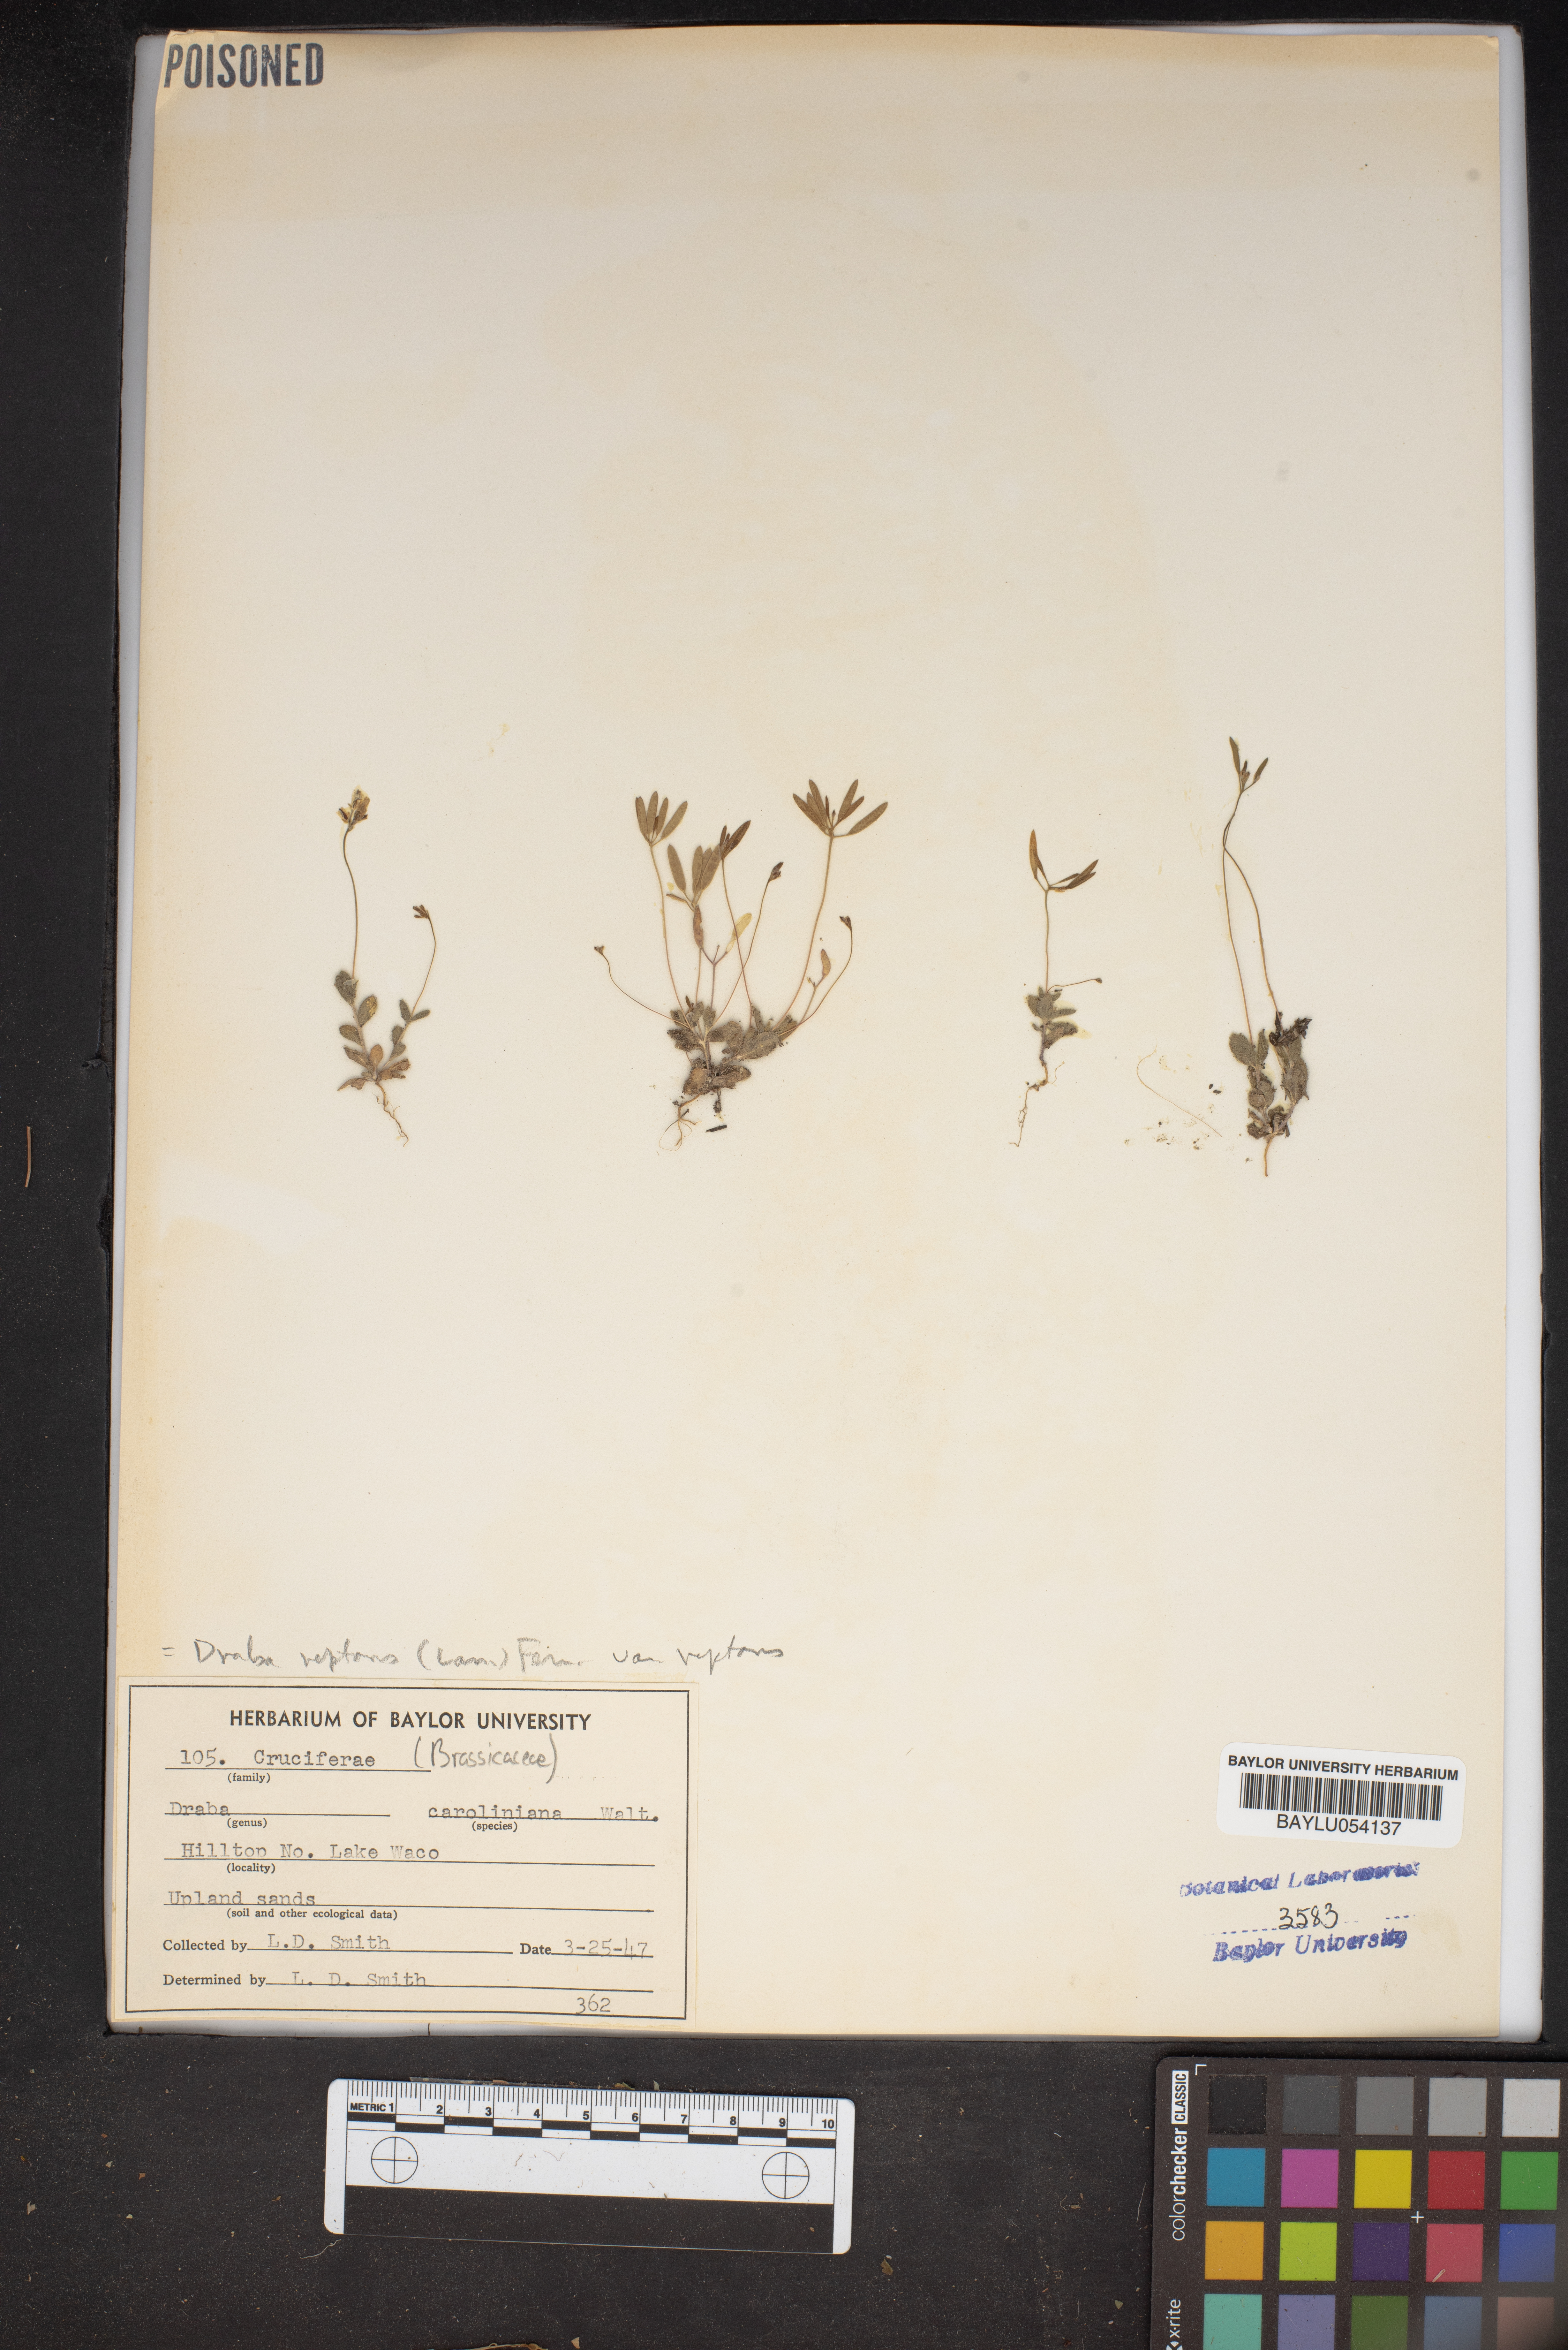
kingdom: Plantae
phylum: Tracheophyta
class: Magnoliopsida
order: Brassicales
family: Brassicaceae
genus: Tomostima
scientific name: Tomostima reptans
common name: Carolina draba
